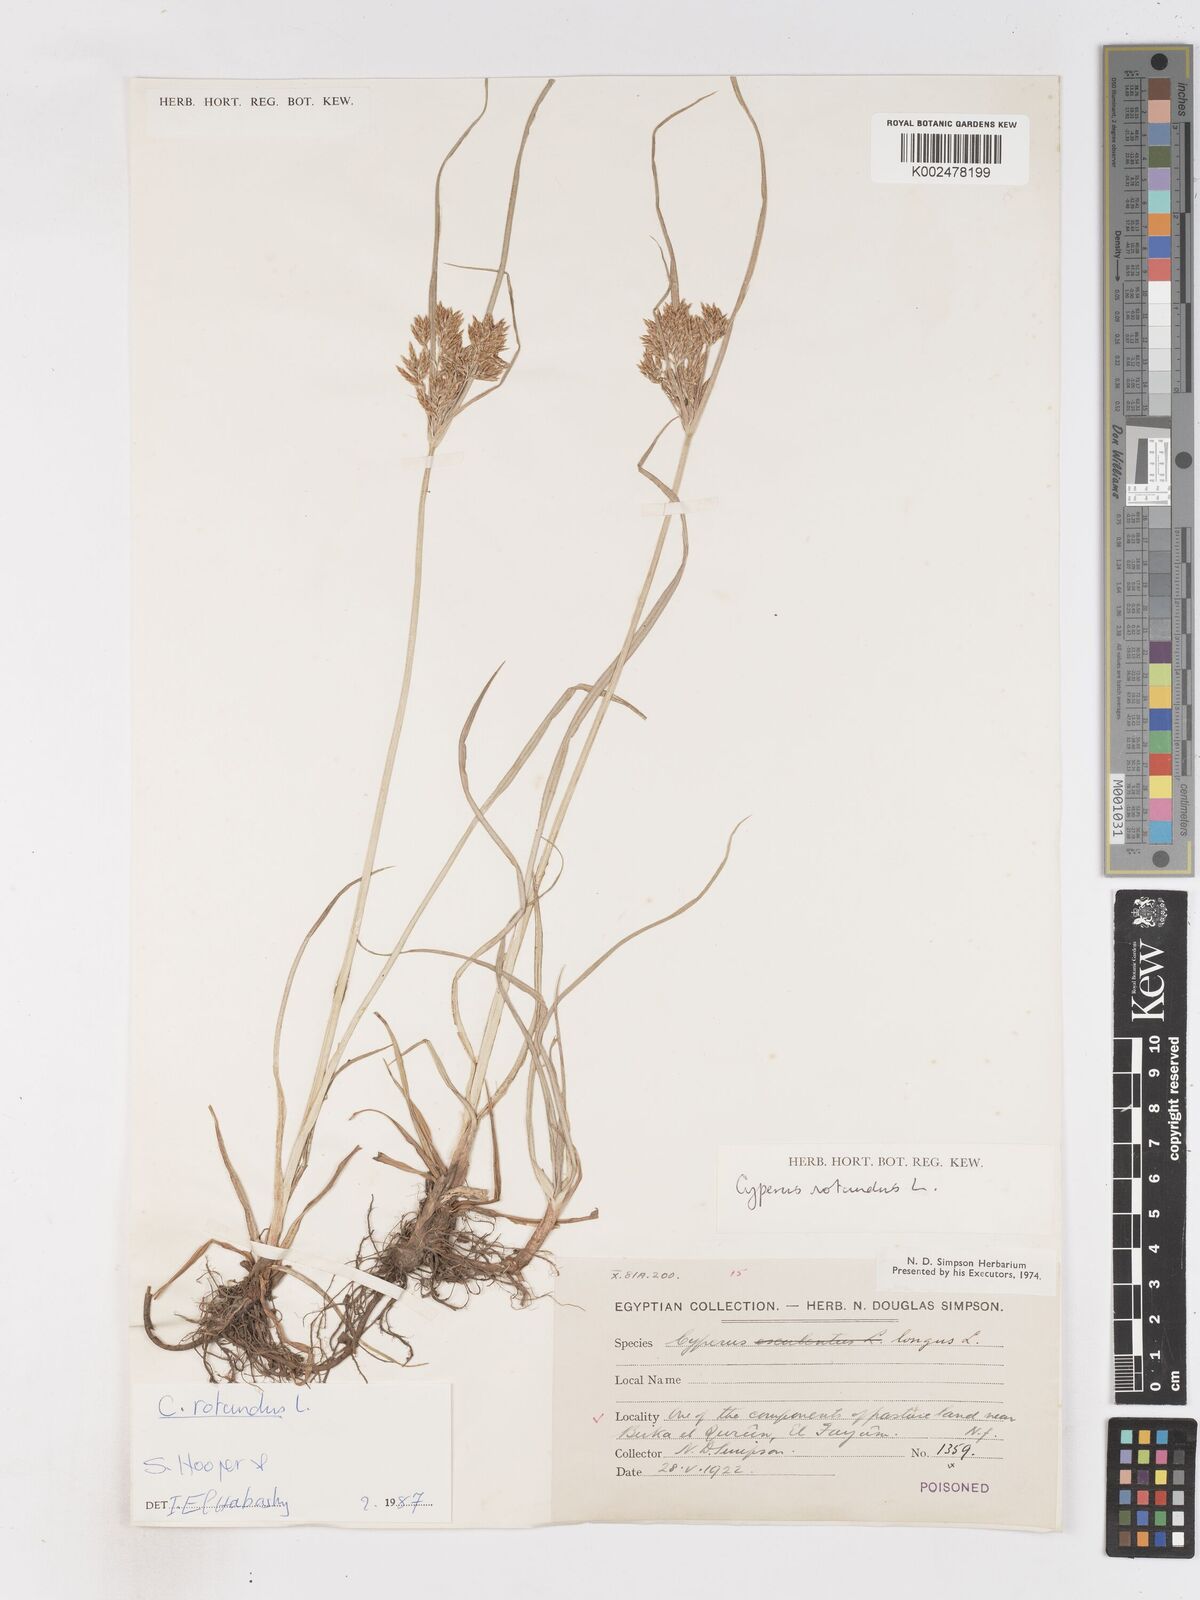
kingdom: Plantae
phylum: Tracheophyta
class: Liliopsida
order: Poales
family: Cyperaceae
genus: Cyperus
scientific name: Cyperus rotundus
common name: Nutgrass
